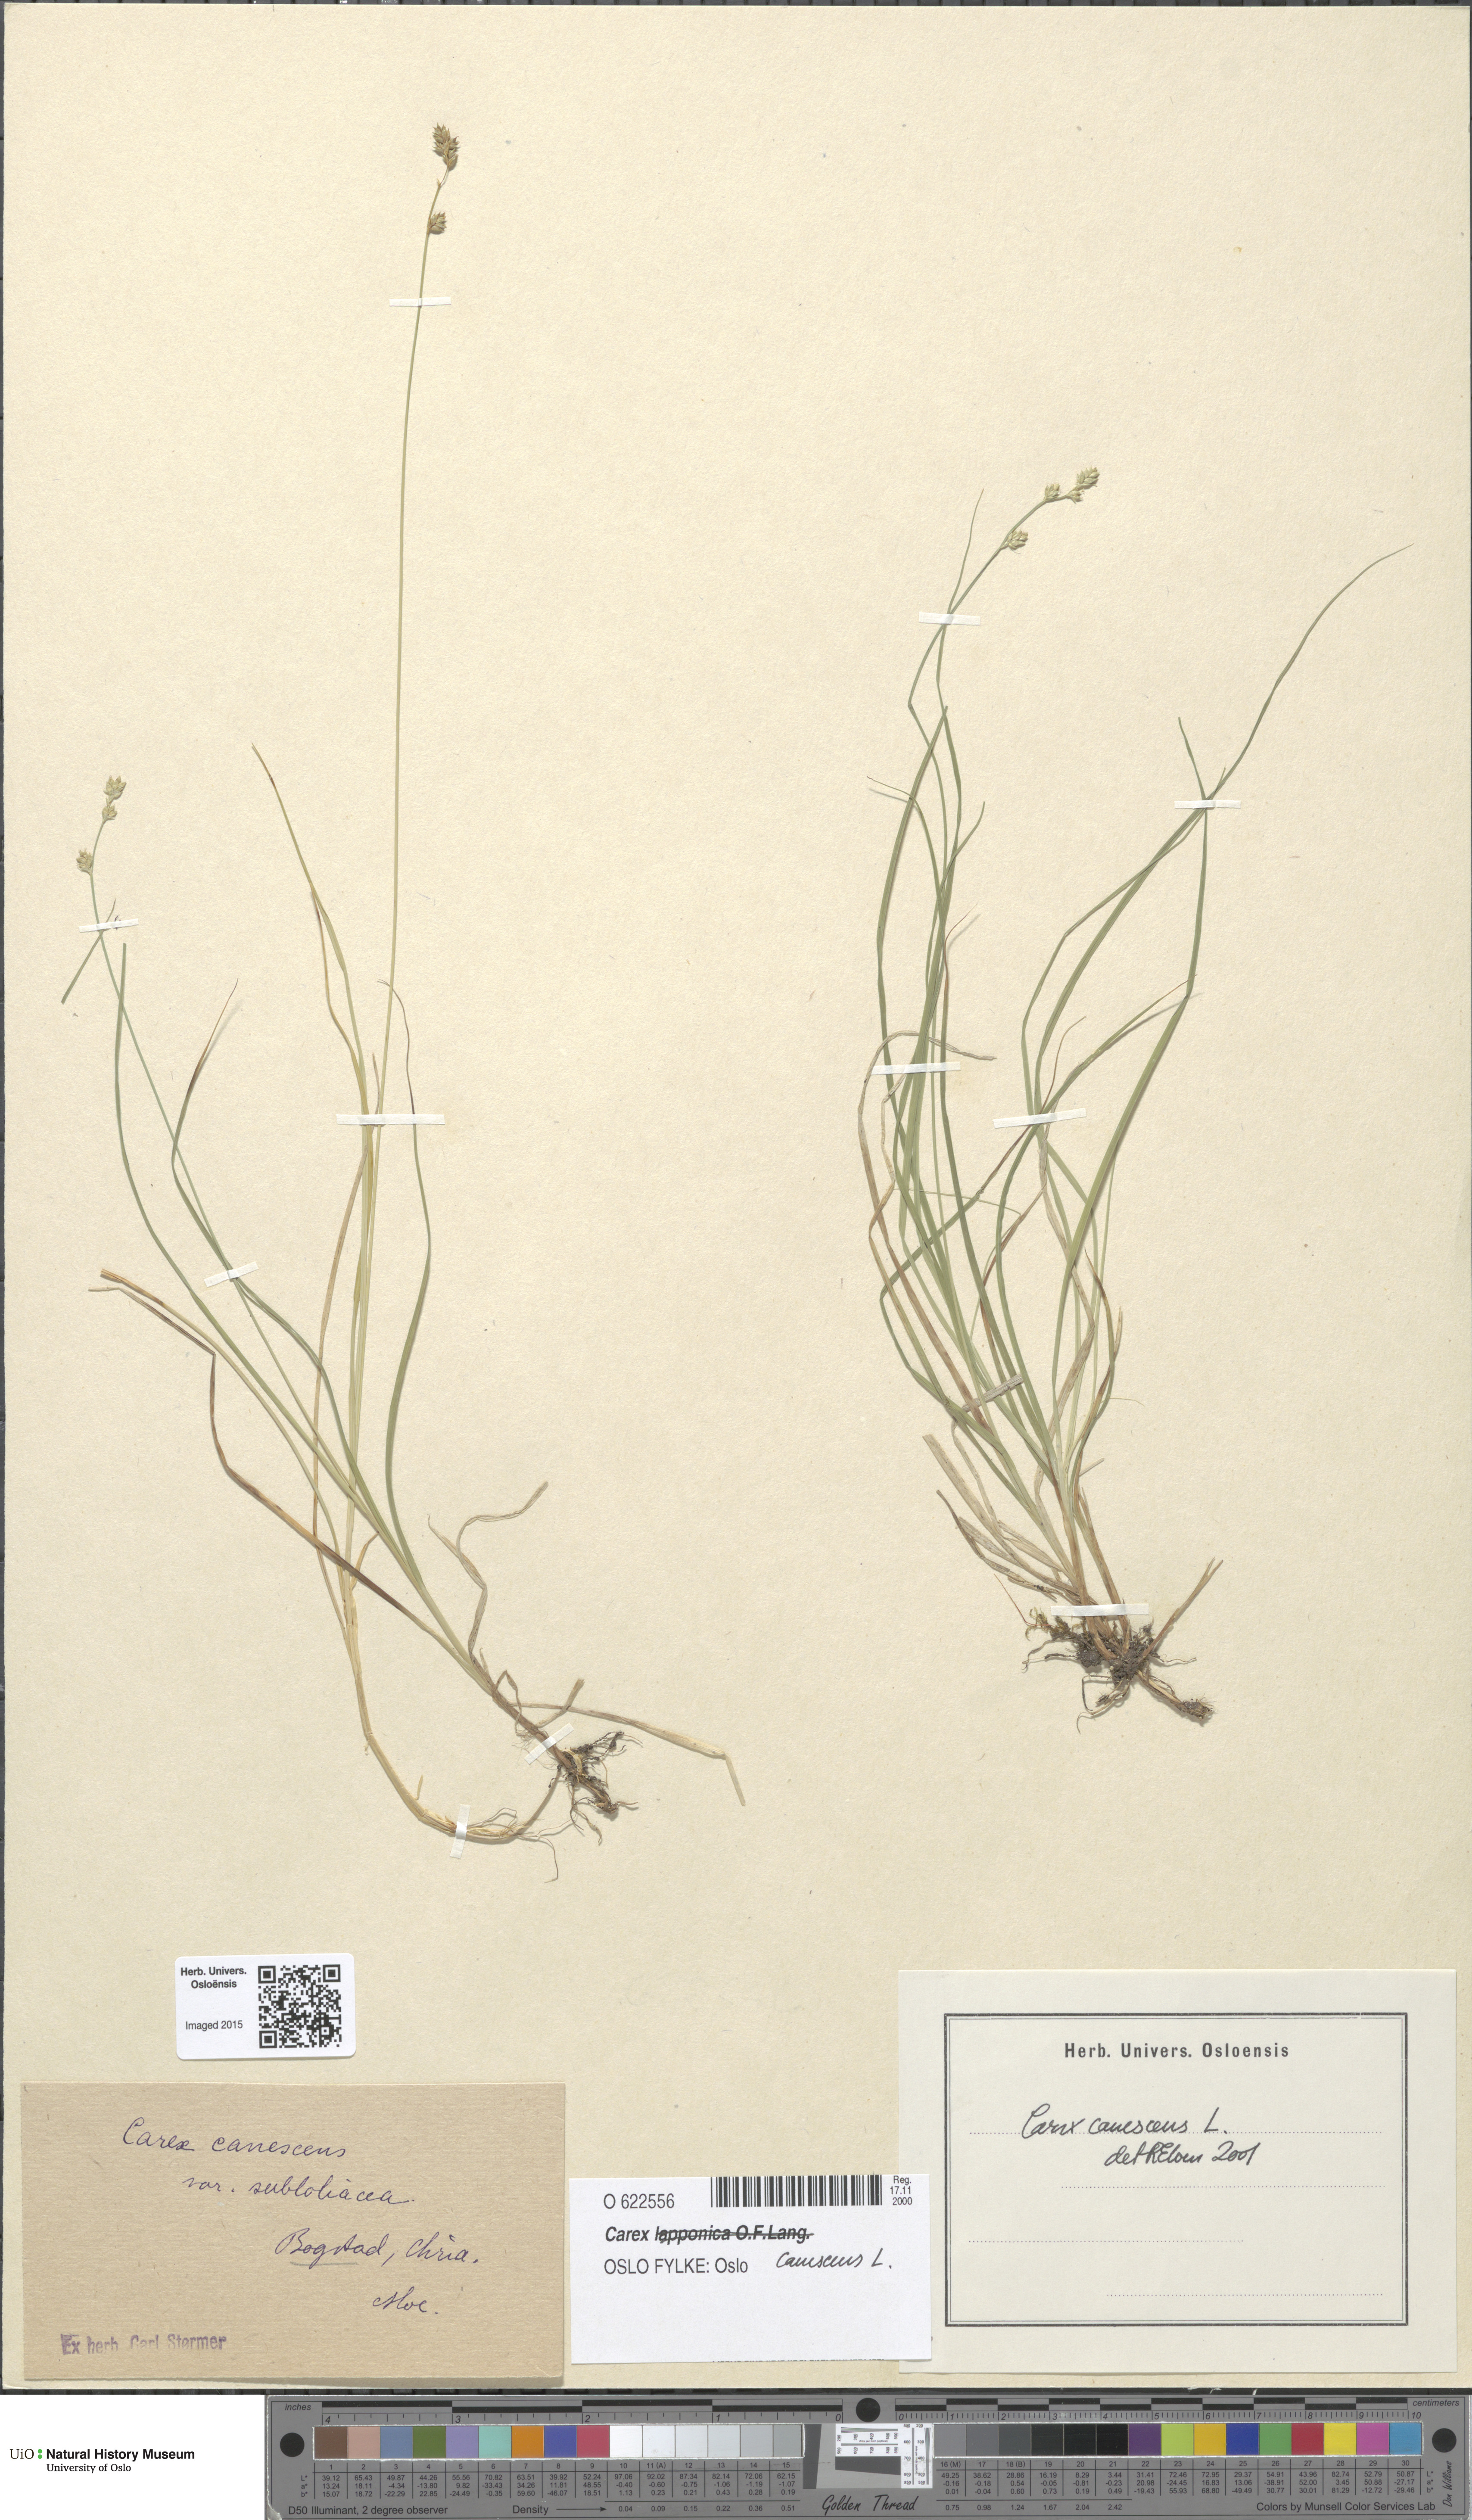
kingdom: Plantae
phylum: Tracheophyta
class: Liliopsida
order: Poales
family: Cyperaceae
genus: Carex
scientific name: Carex canescens
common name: White sedge
